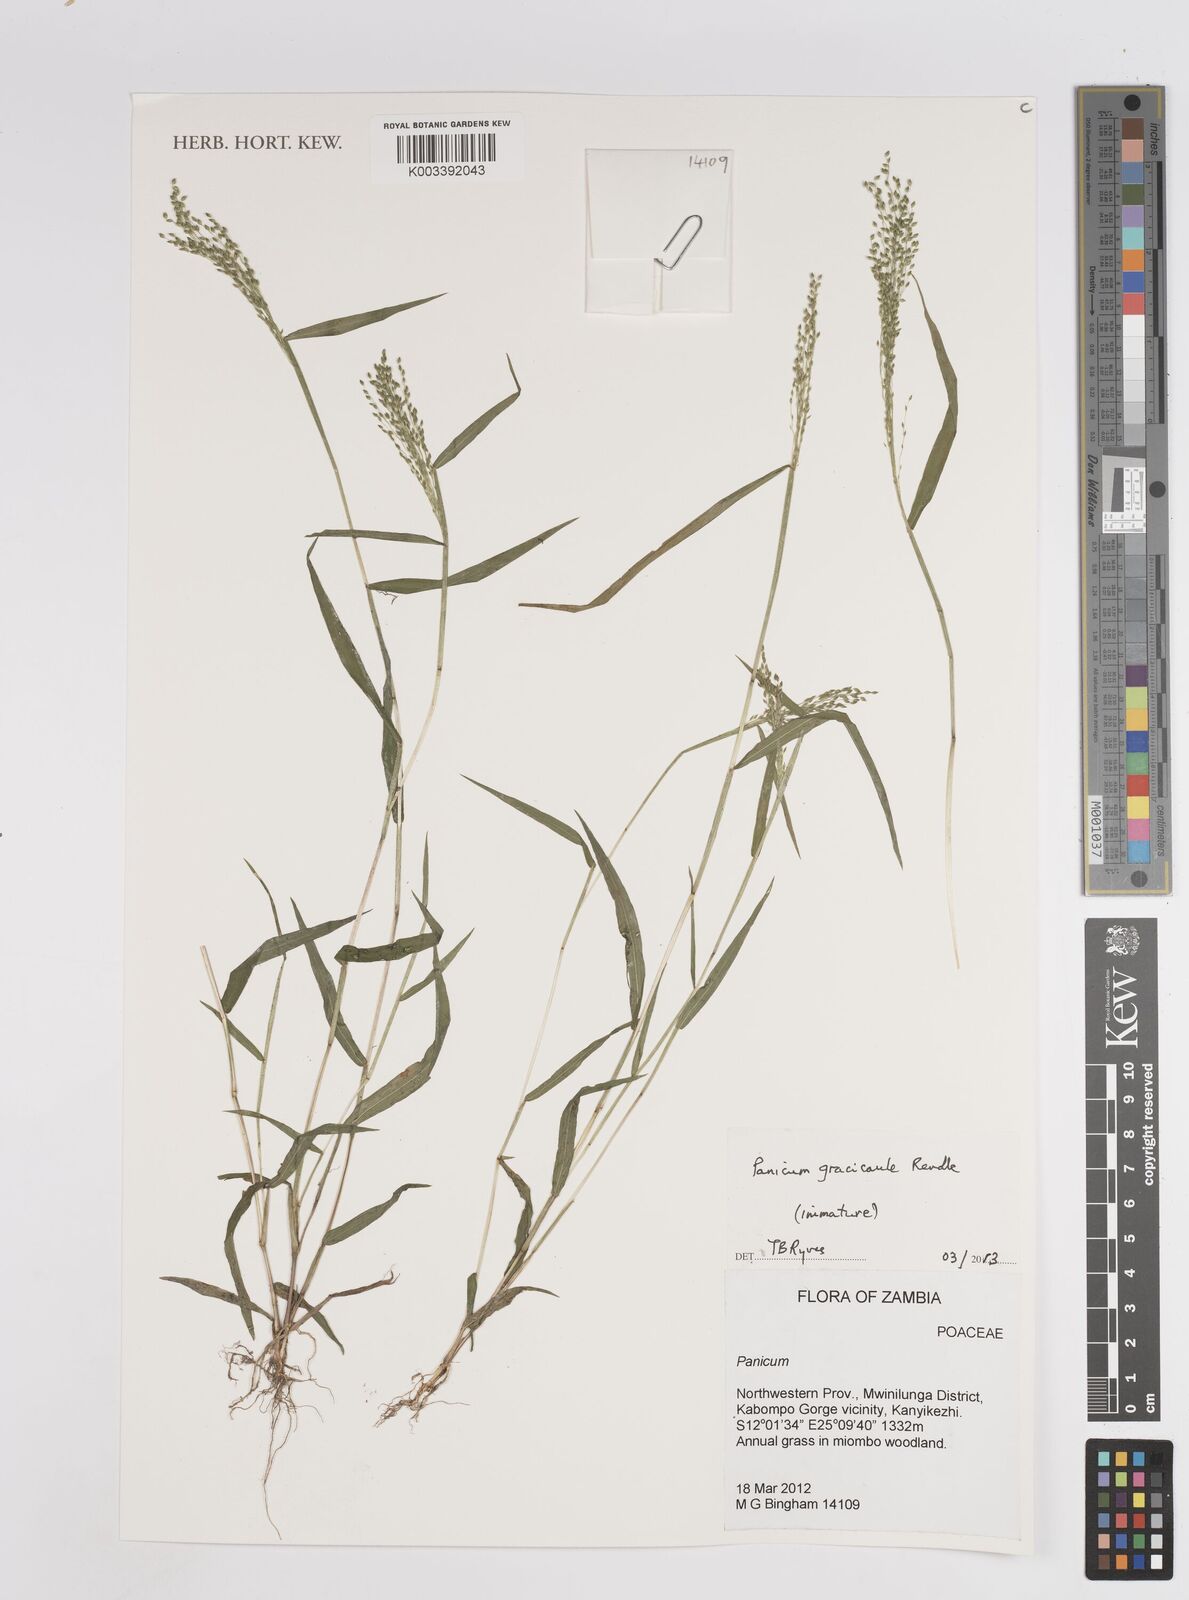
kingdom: Plantae
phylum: Tracheophyta
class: Liliopsida
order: Poales
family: Poaceae
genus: Trichanthecium
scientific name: Trichanthecium gracilicaule
